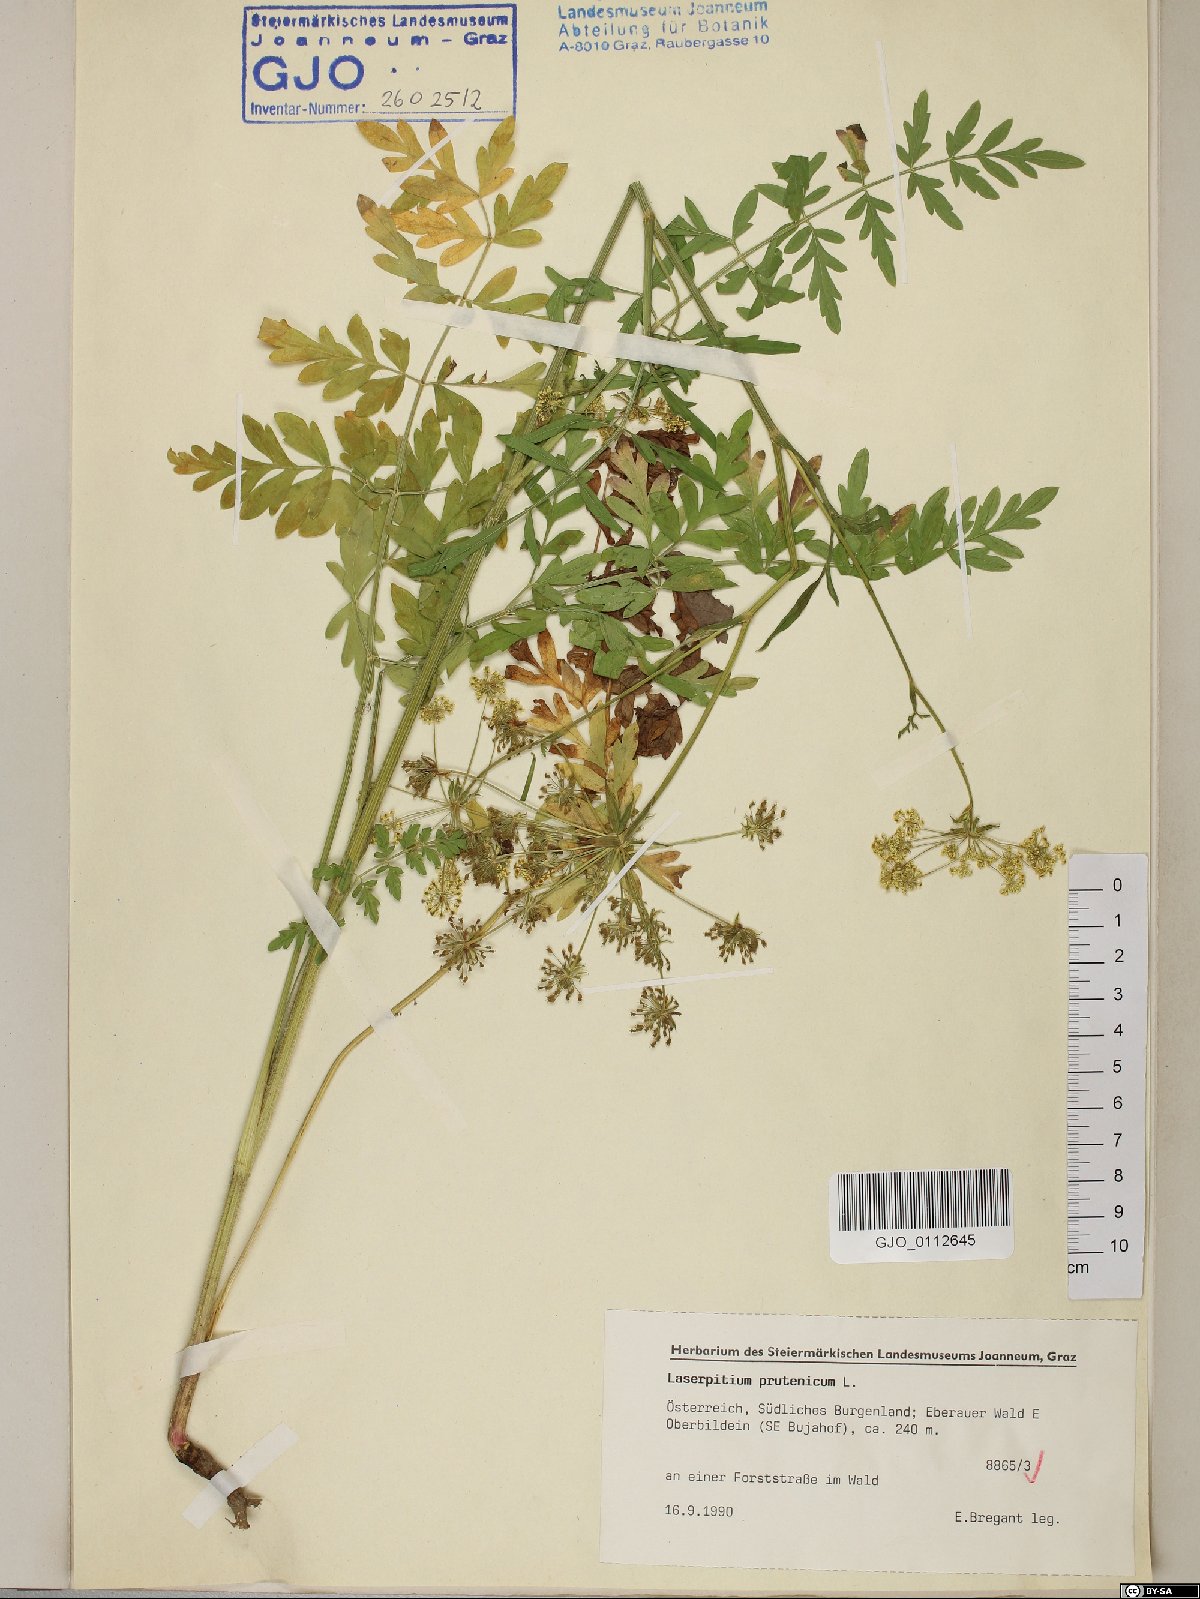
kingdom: Plantae
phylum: Tracheophyta
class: Magnoliopsida
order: Apiales
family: Apiaceae
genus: Silphiodaucus
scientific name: Silphiodaucus prutenicus
